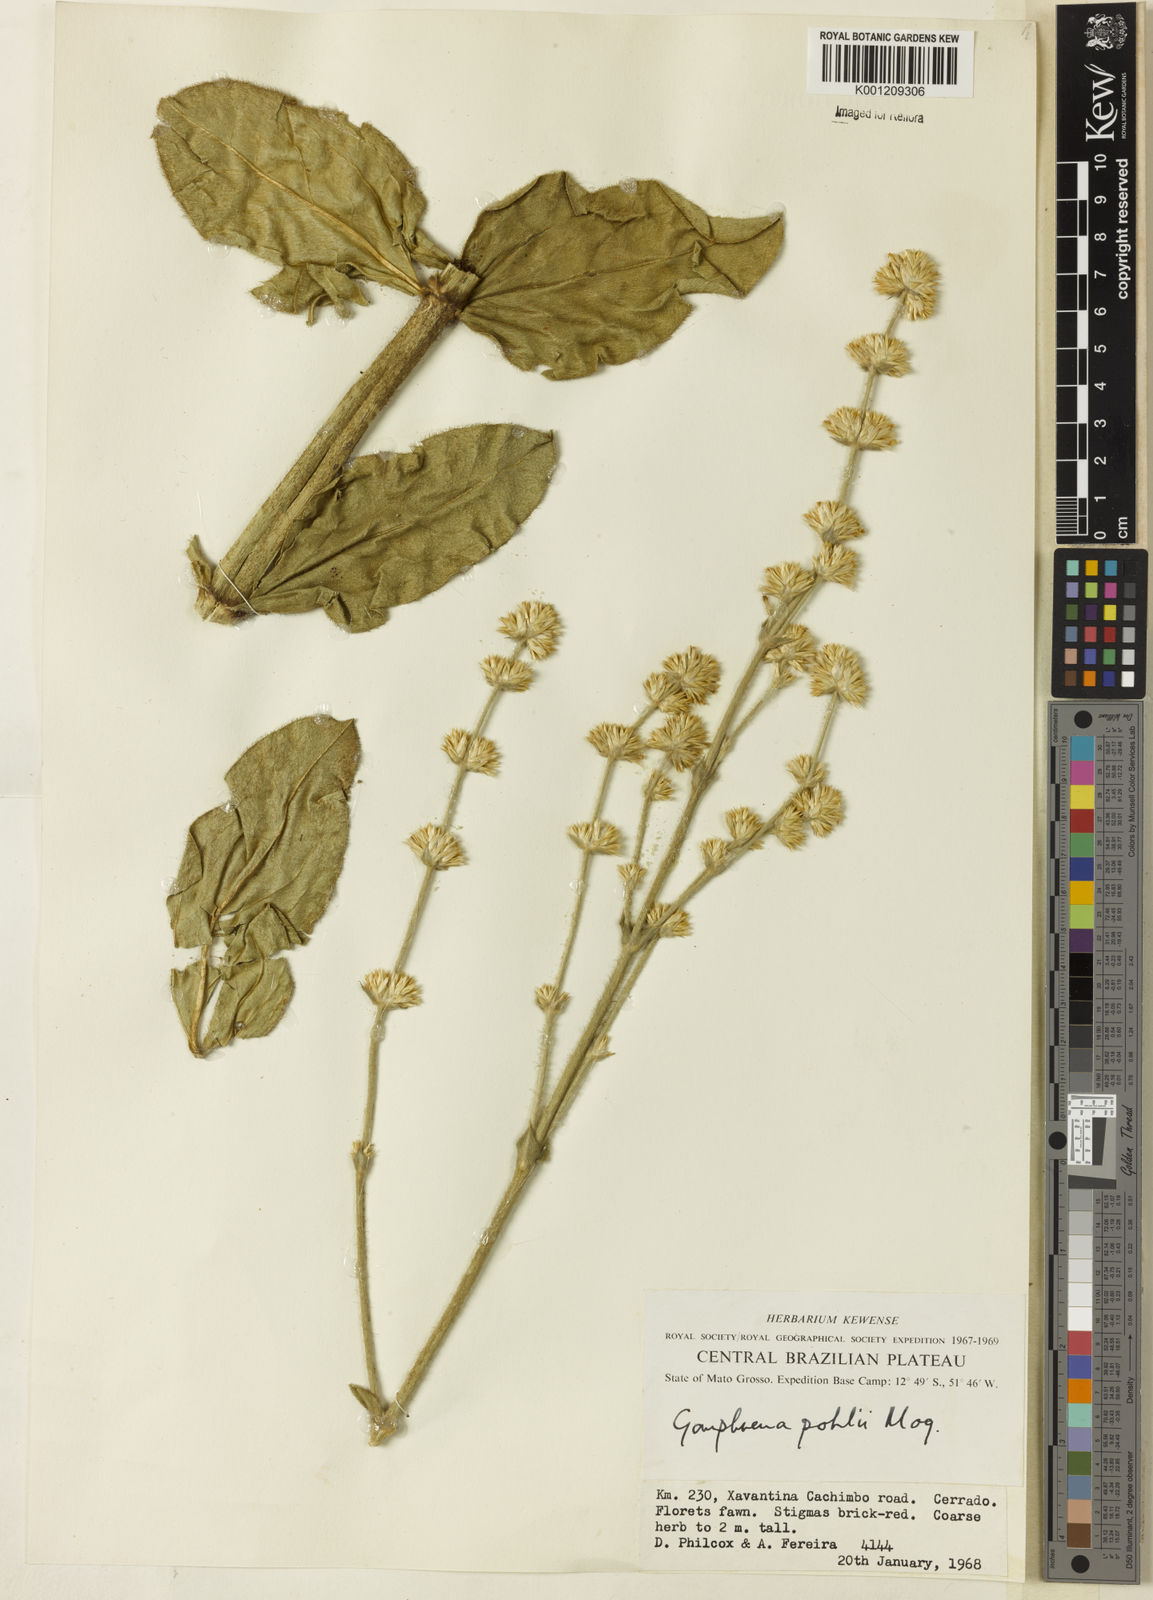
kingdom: Plantae
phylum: Tracheophyta
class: Magnoliopsida
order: Caryophyllales
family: Amaranthaceae
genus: Gomphrena
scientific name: Gomphrena pohlii
